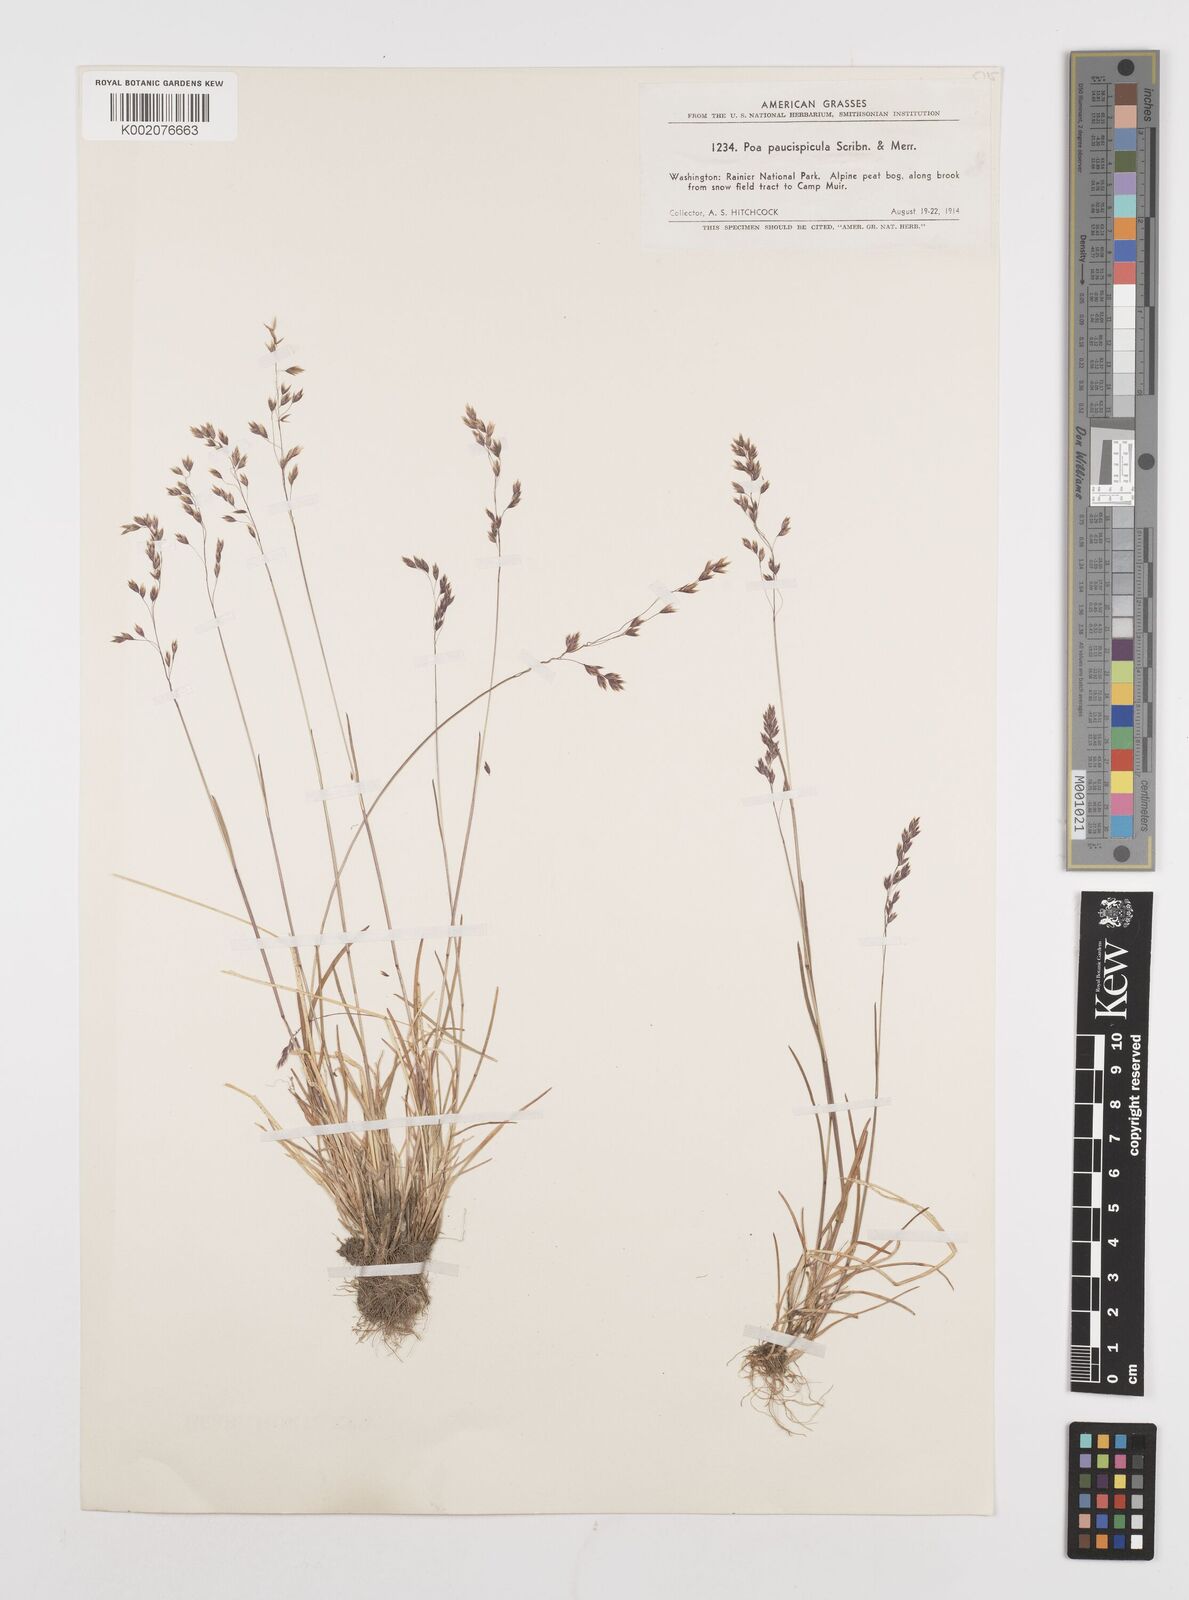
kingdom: Plantae
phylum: Tracheophyta
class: Liliopsida
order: Poales
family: Poaceae
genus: Poa
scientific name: Poa paucispicula
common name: Alaska bluegrass
